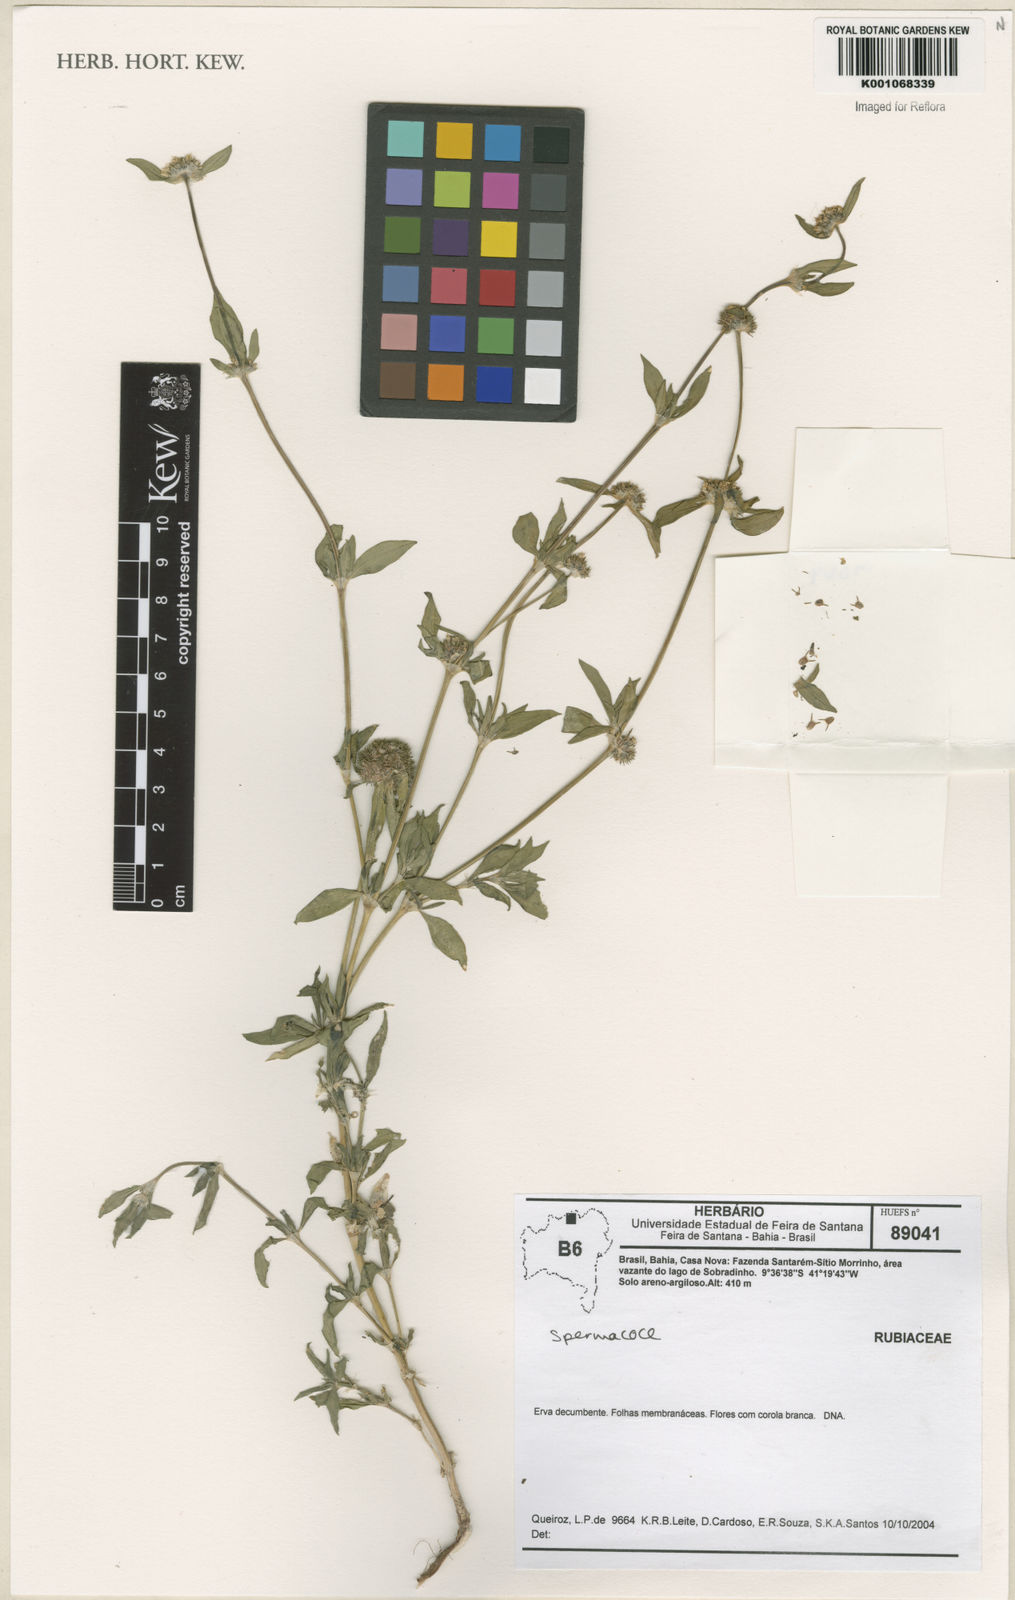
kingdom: Plantae
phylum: Tracheophyta
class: Magnoliopsida
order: Gentianales
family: Rubiaceae
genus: Spermacoce
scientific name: Spermacoce
